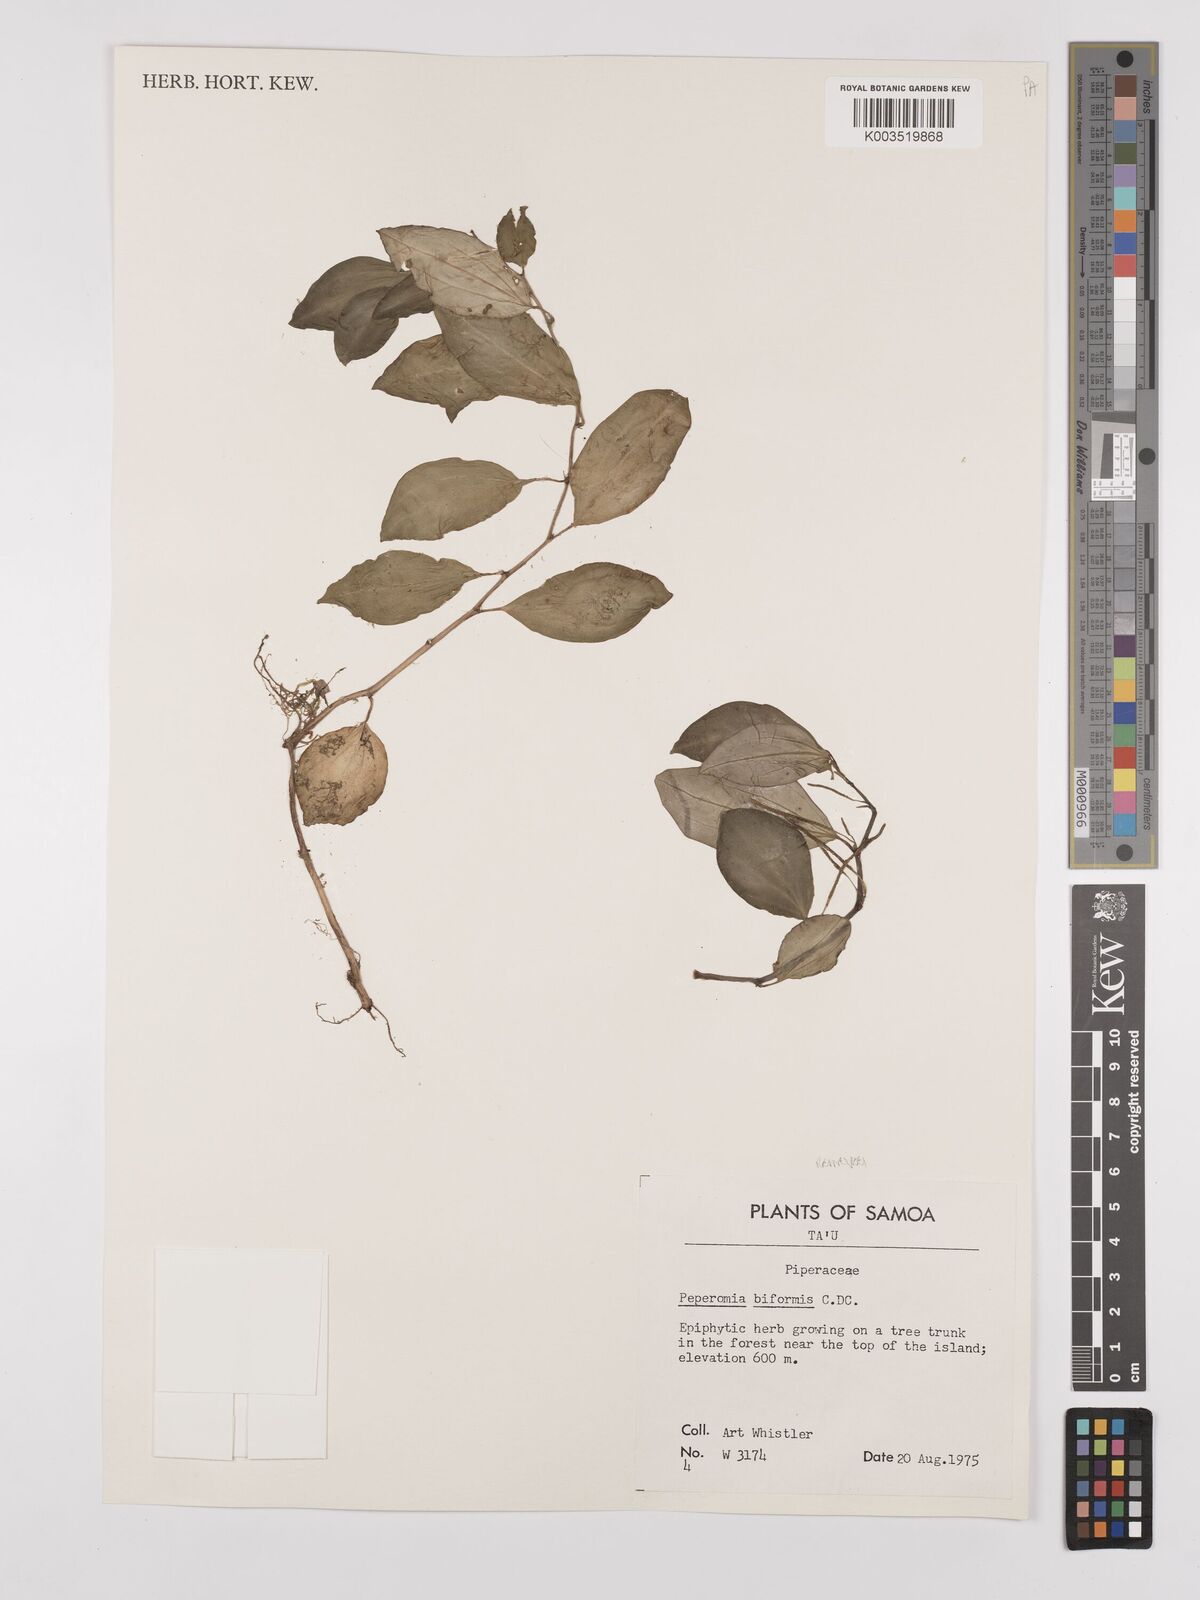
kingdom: Plantae
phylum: Tracheophyta
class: Magnoliopsida
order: Piperales
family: Piperaceae
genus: Peperomia
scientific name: Peperomia reineckei
